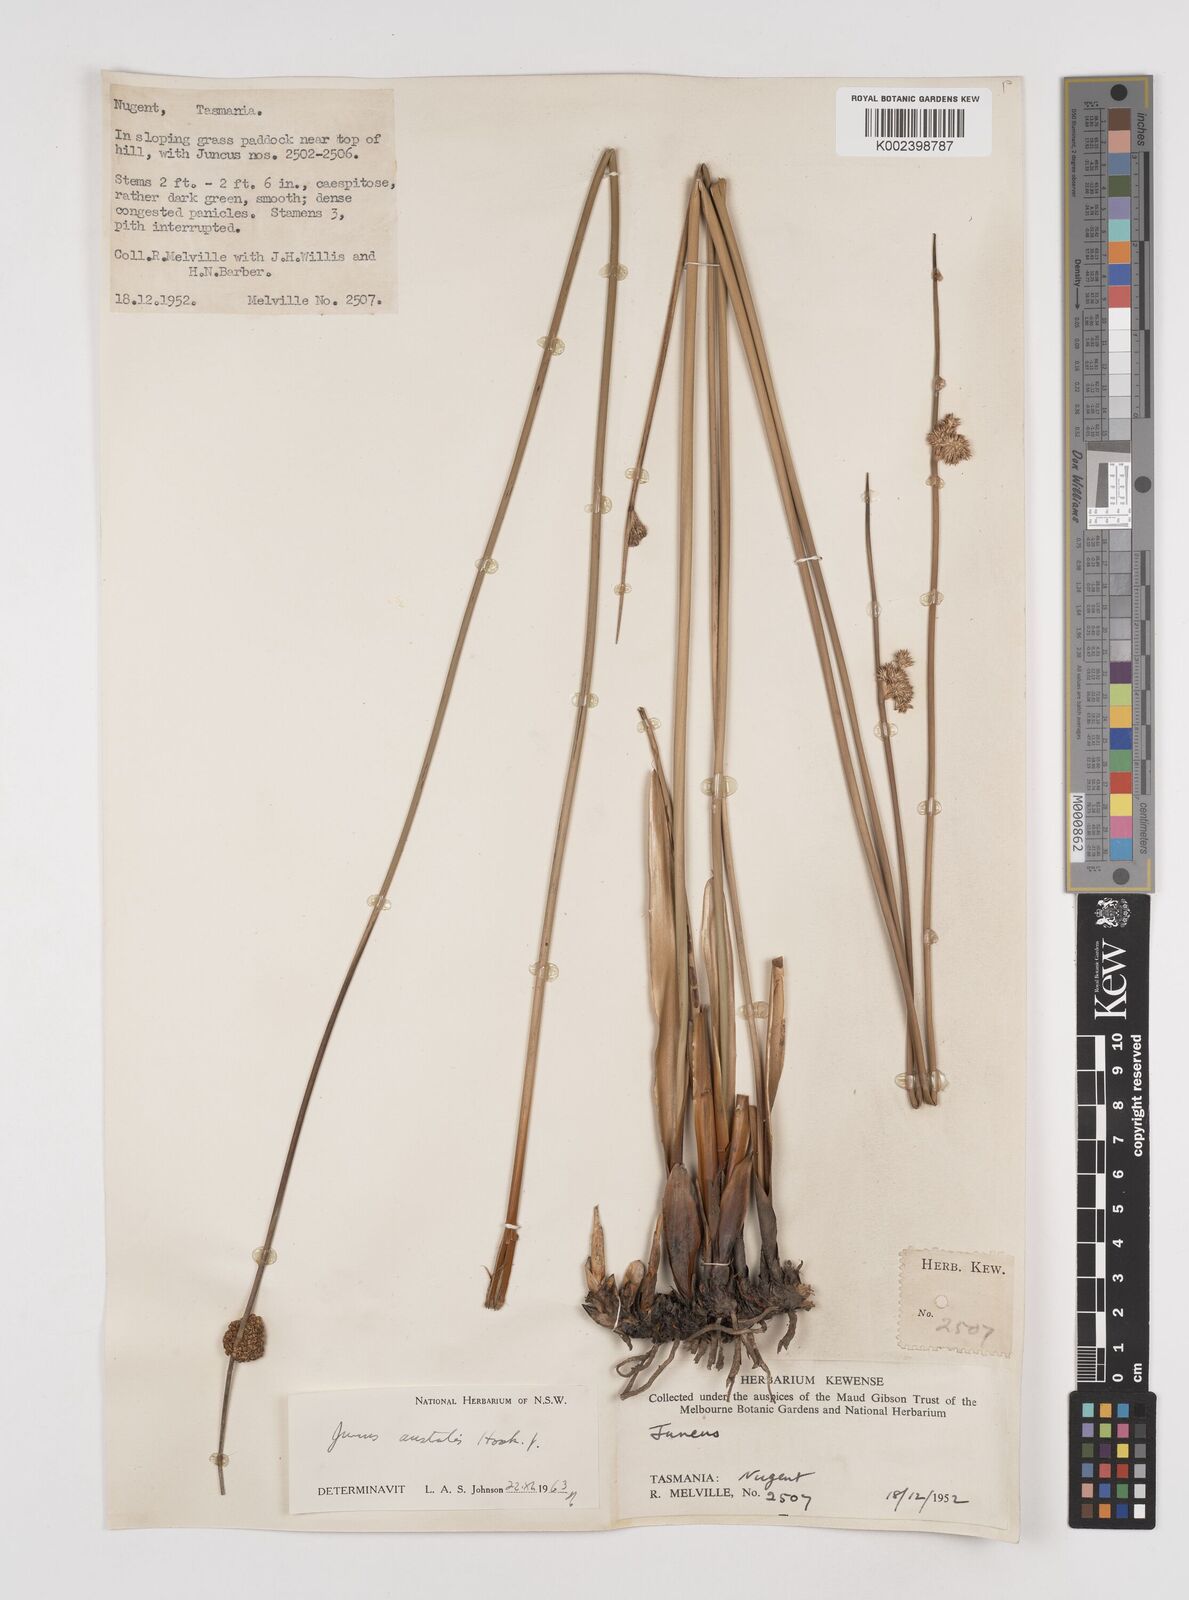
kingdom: Plantae
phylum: Tracheophyta
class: Liliopsida
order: Poales
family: Juncaceae
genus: Juncus
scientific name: Juncus australis
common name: Austral rush
